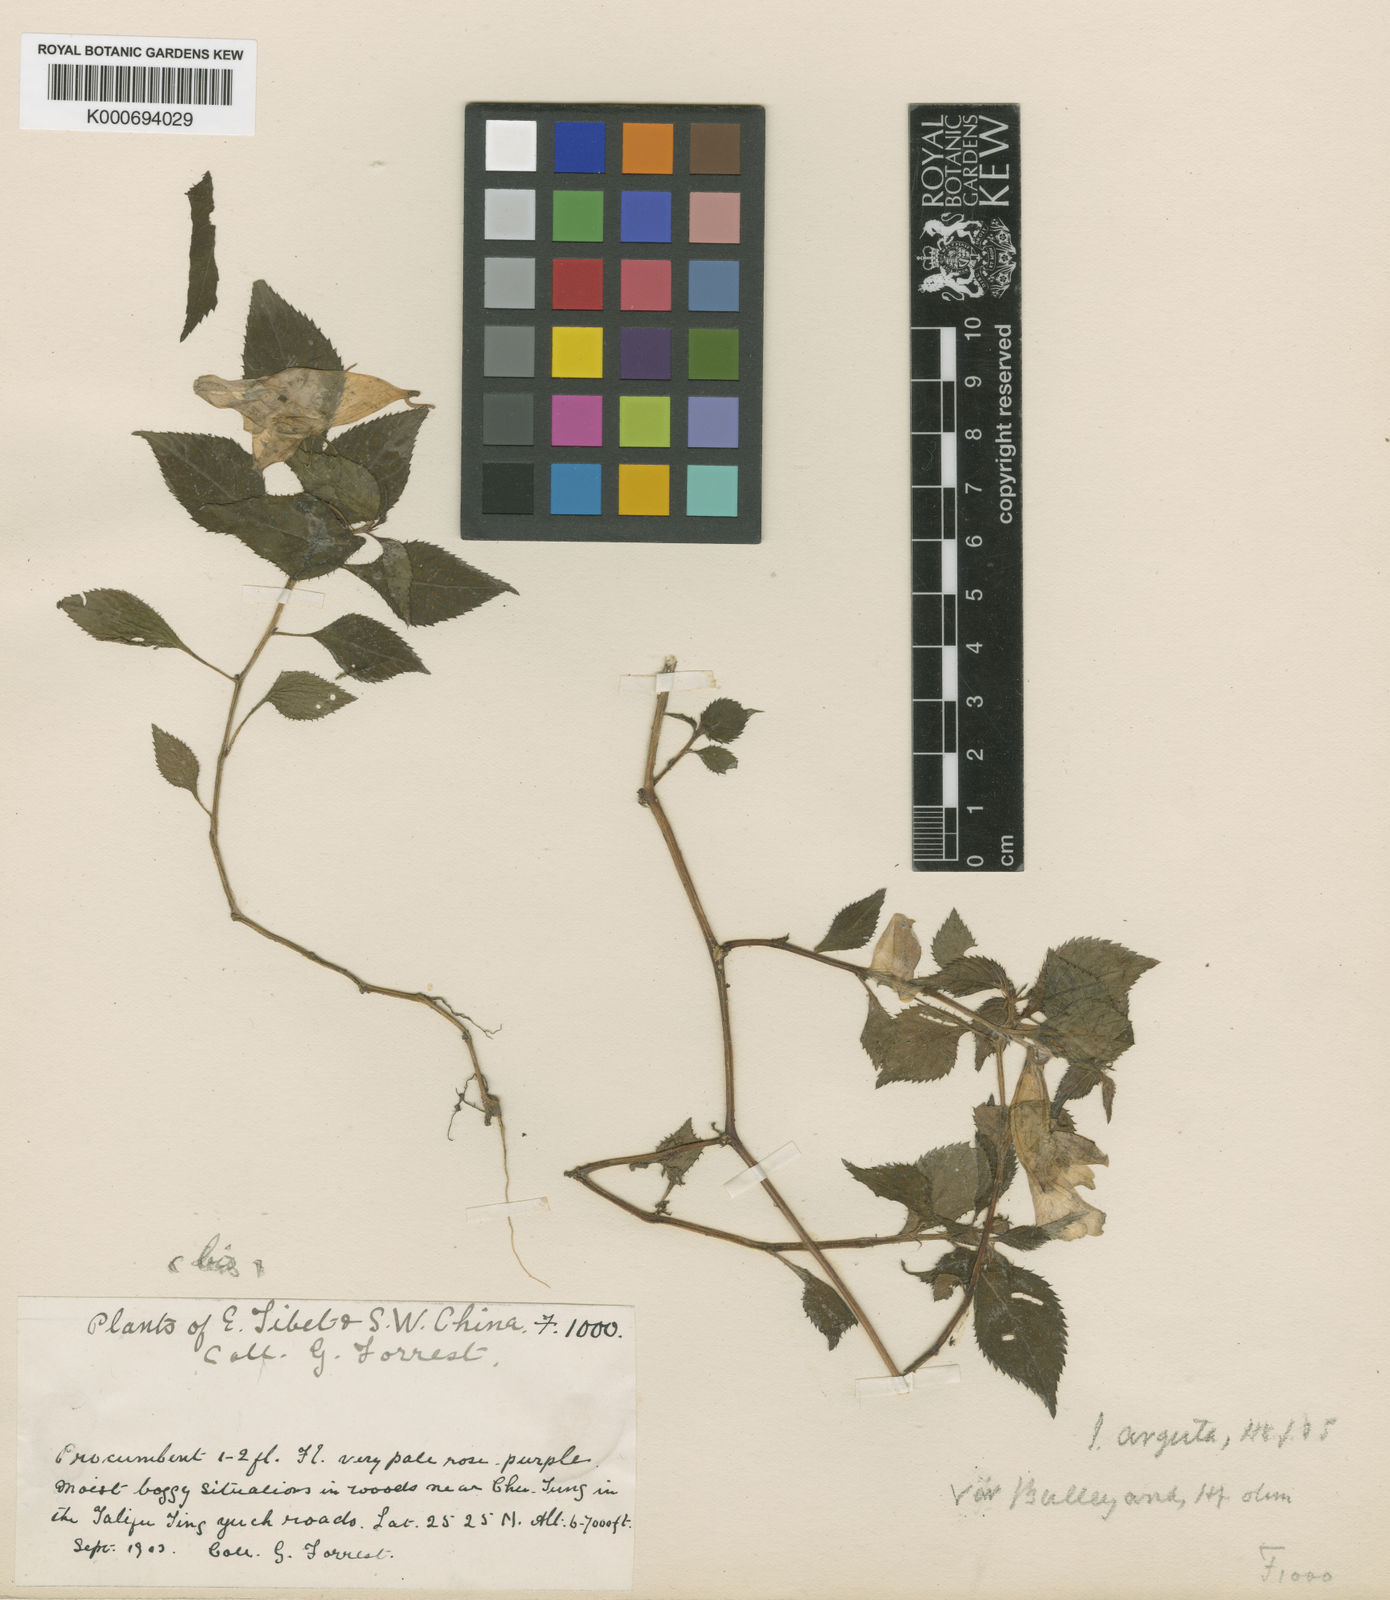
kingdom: Plantae
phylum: Tracheophyta
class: Magnoliopsida
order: Ericales
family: Balsaminaceae
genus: Impatiens
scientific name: Impatiens arguta
